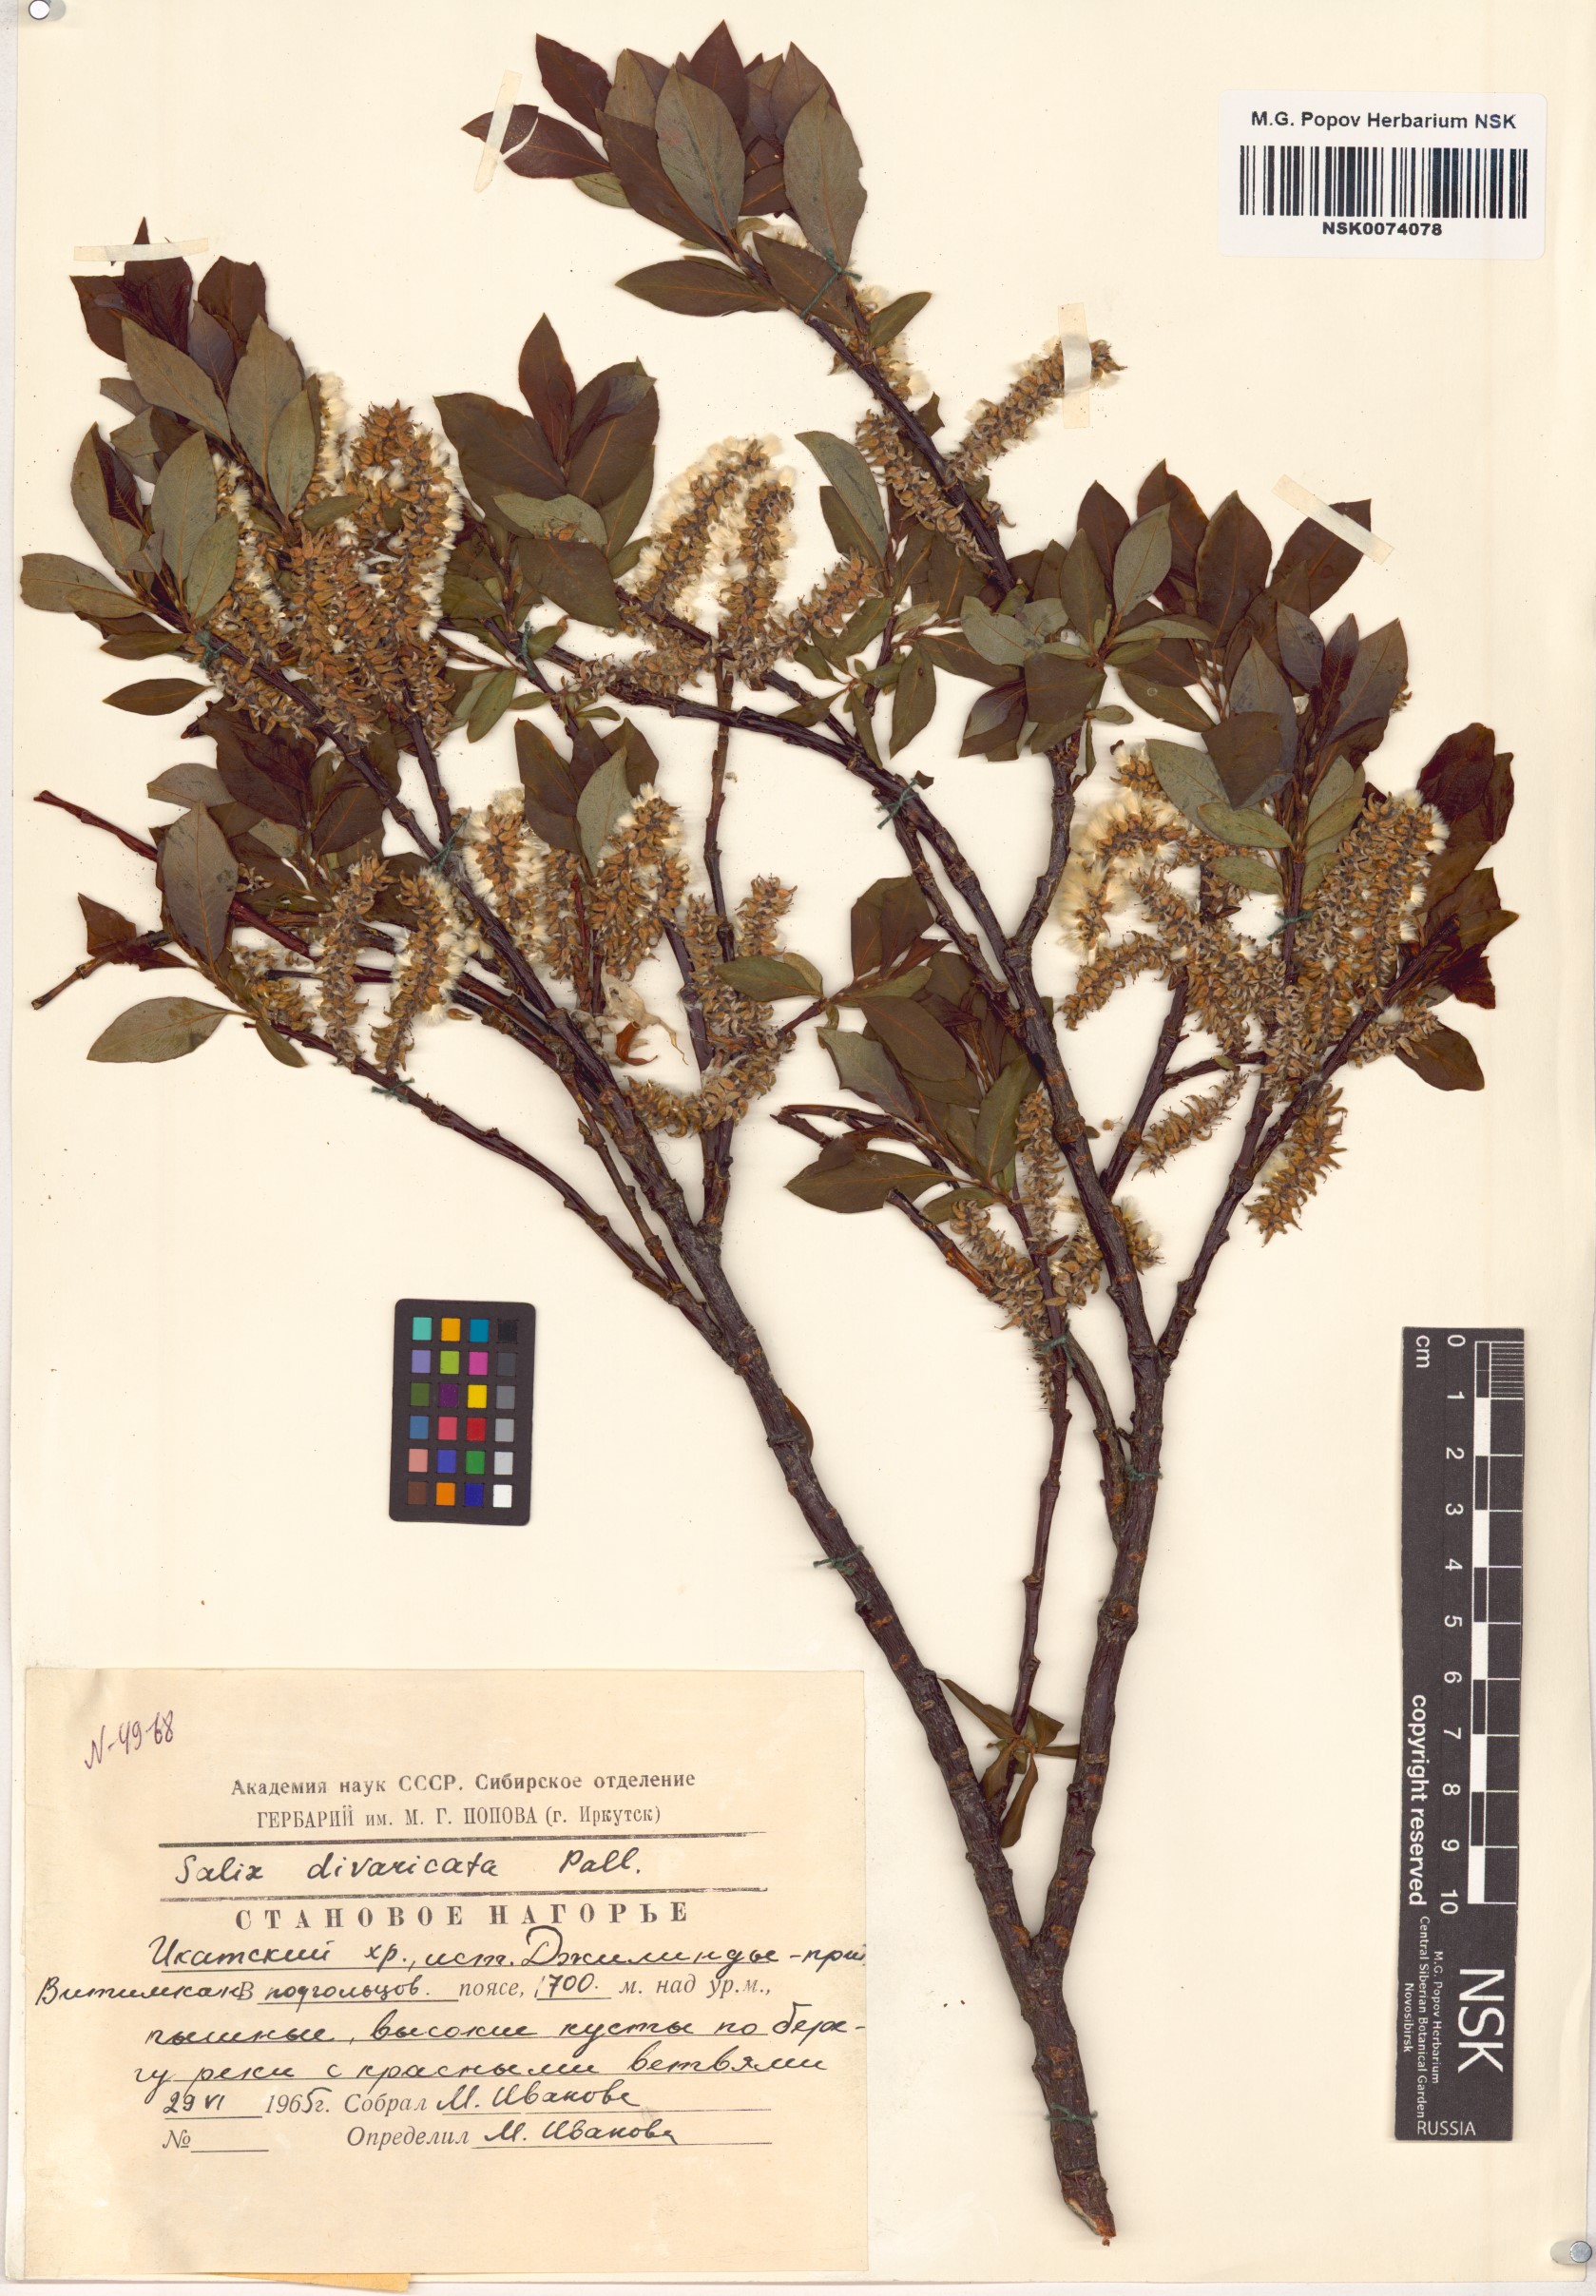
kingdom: Plantae
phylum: Tracheophyta
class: Magnoliopsida
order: Malpighiales
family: Salicaceae
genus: Salix
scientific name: Salix divaricata
